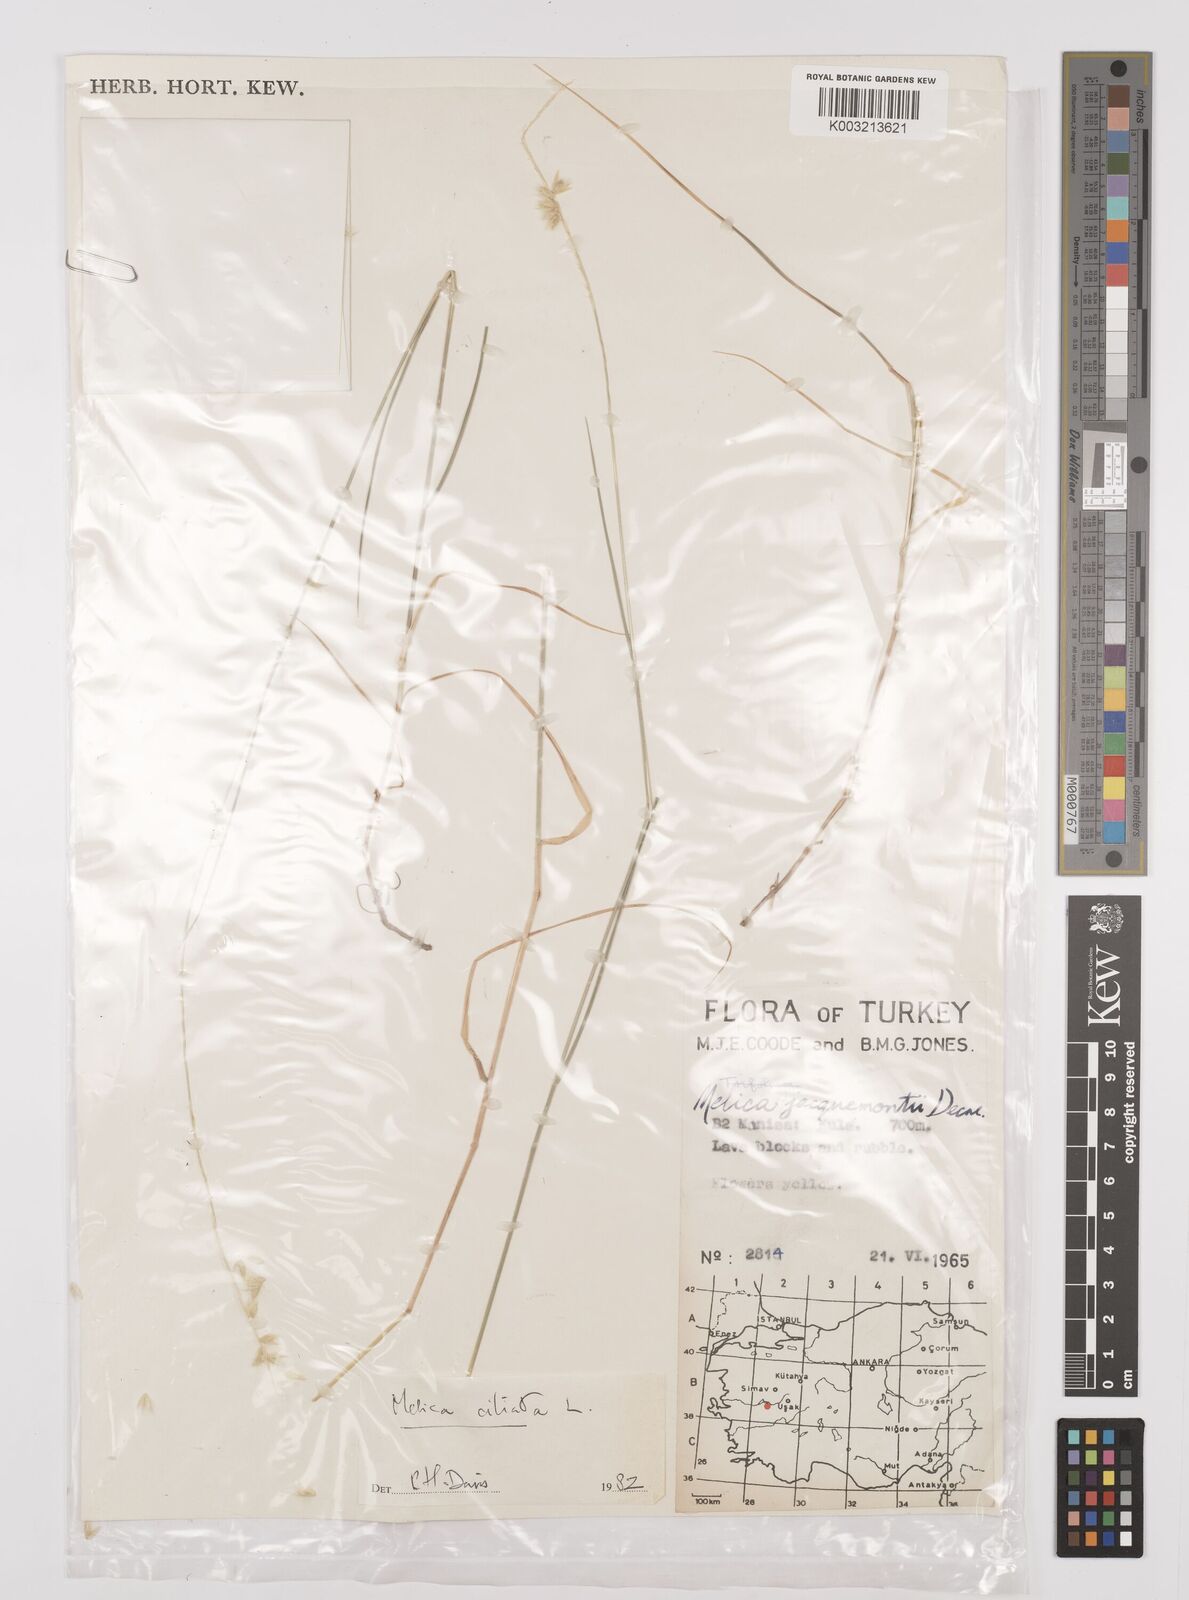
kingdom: Plantae
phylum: Tracheophyta
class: Liliopsida
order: Poales
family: Poaceae
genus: Melica
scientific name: Melica ciliata
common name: Hairy melicgrass
